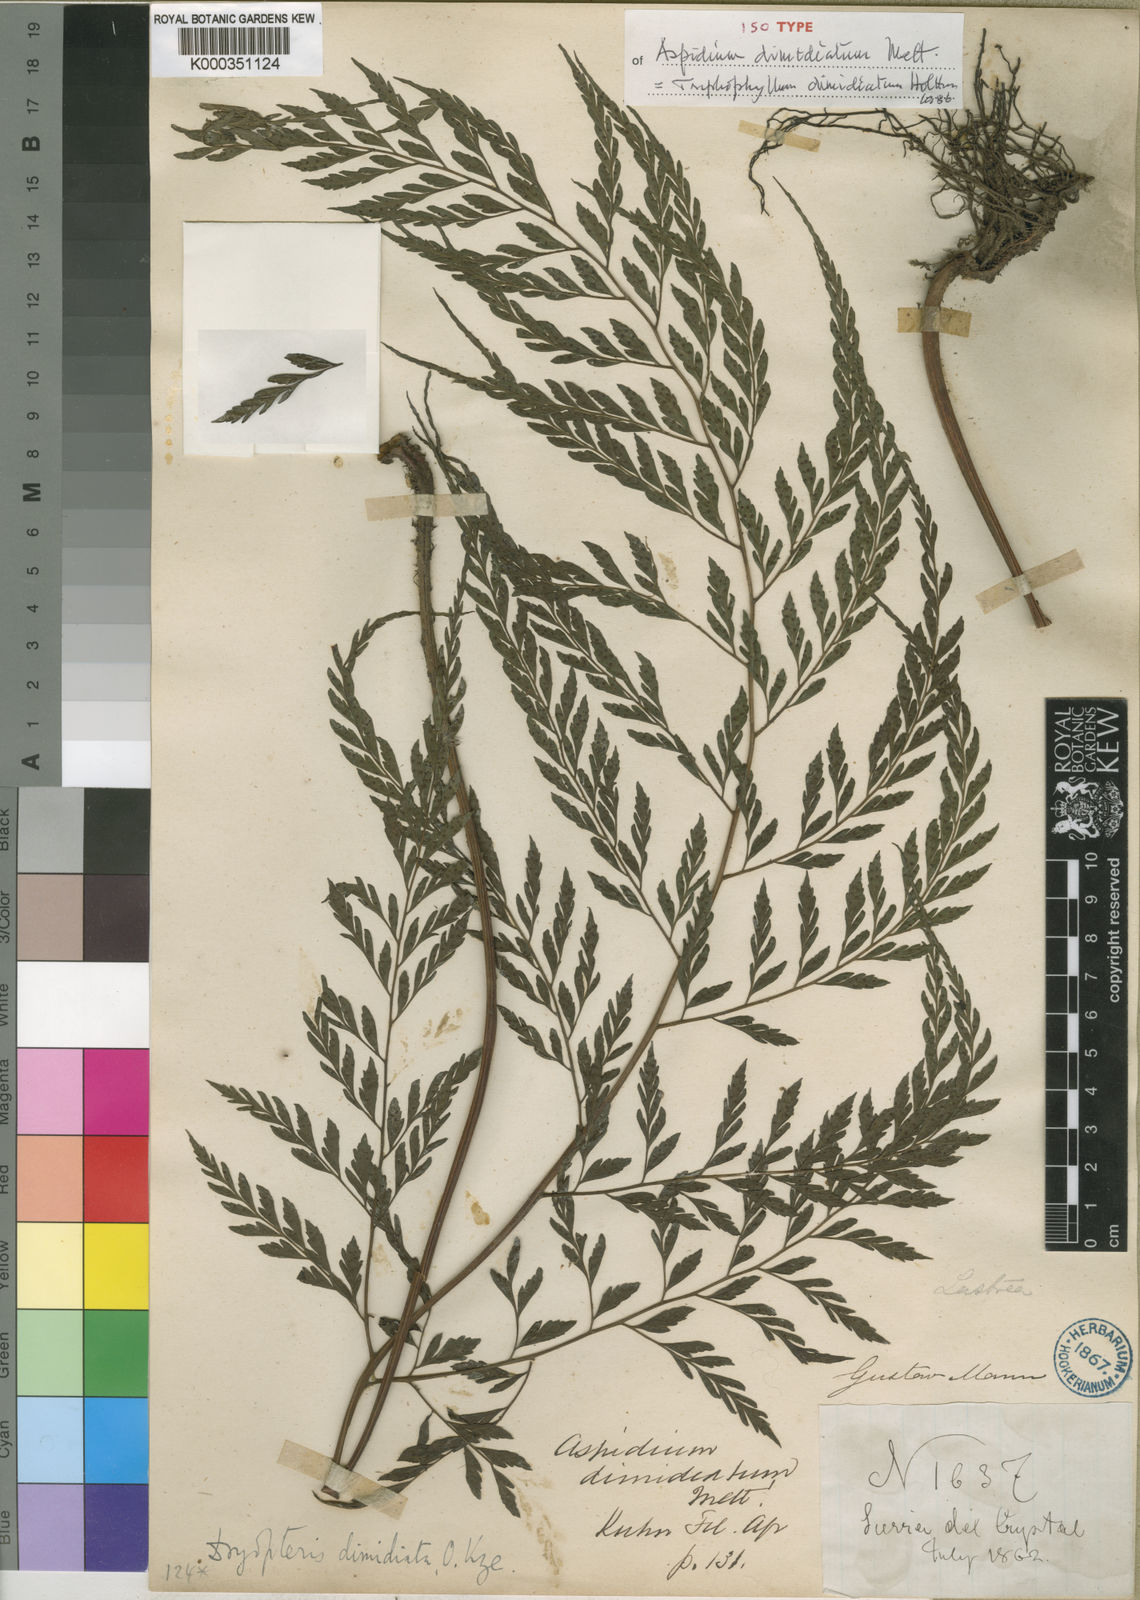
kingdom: Plantae
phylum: Tracheophyta
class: Polypodiopsida
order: Polypodiales
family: Tectariaceae
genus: Triplophyllum
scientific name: Triplophyllum dimidiatum
